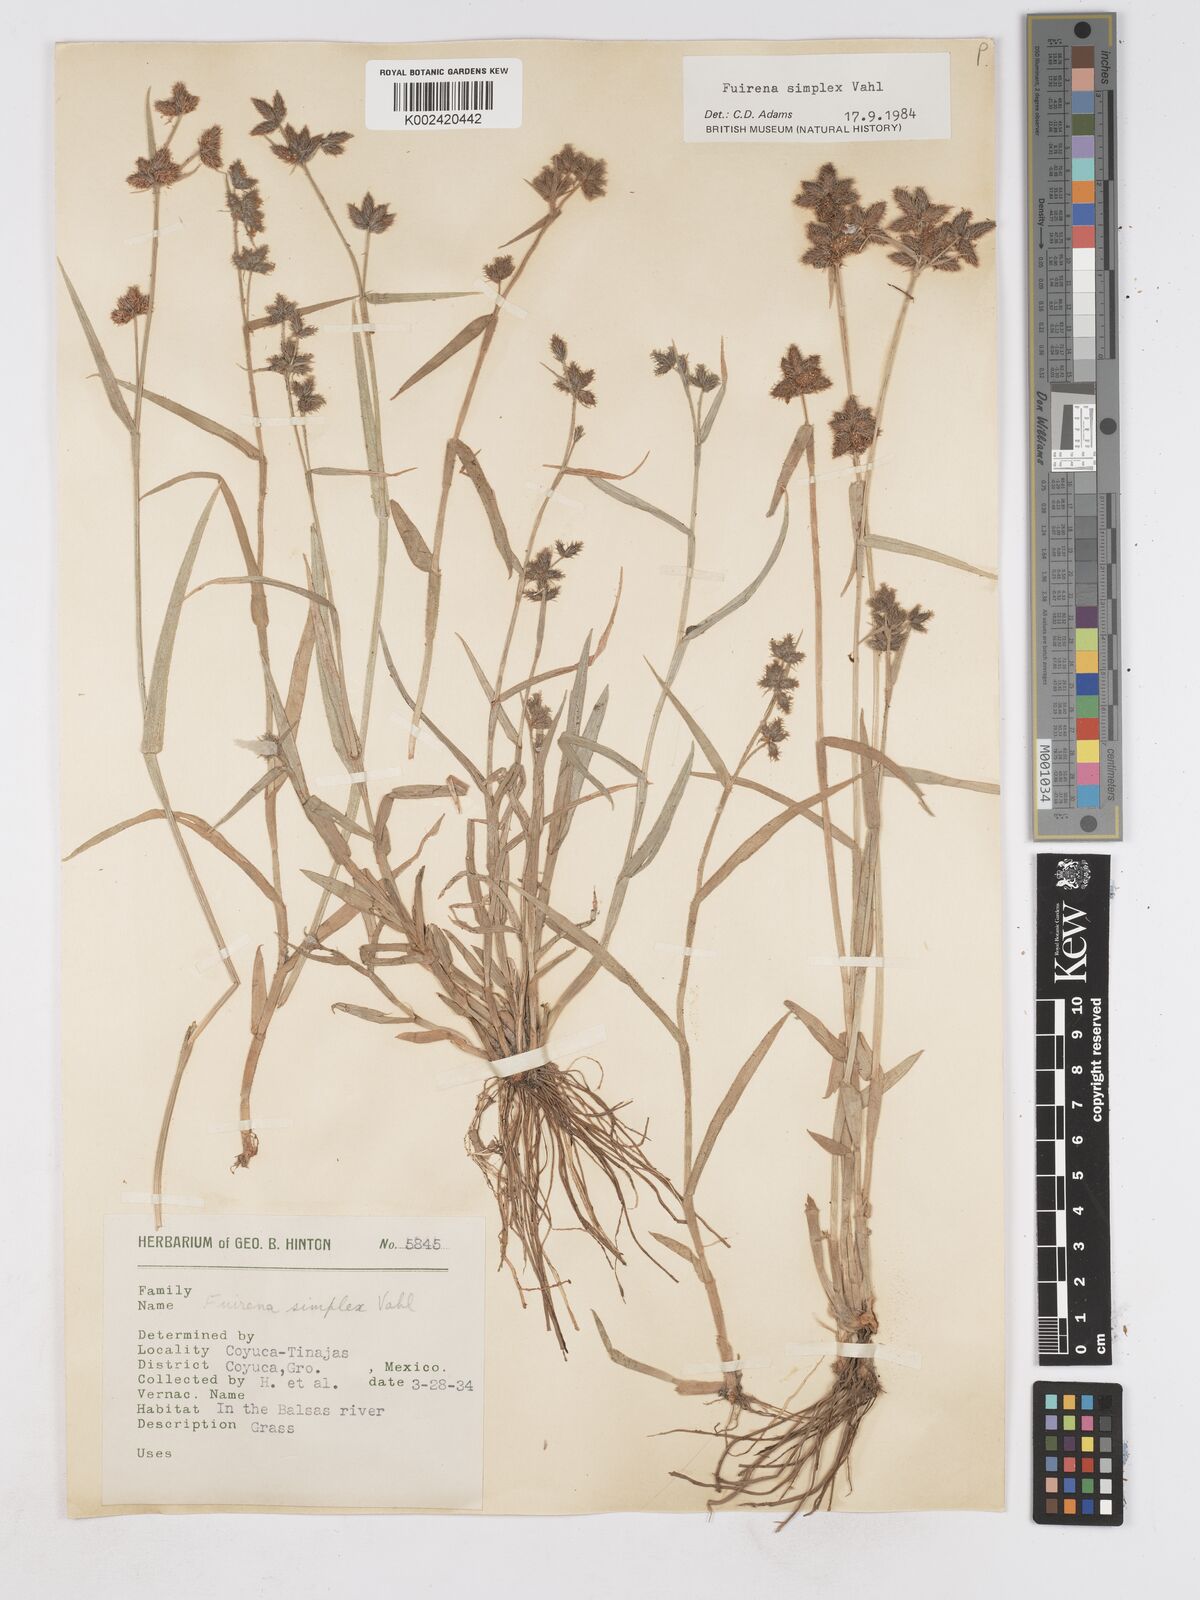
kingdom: Plantae
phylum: Tracheophyta
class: Liliopsida
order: Poales
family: Cyperaceae
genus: Fuirena
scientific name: Fuirena simplex
